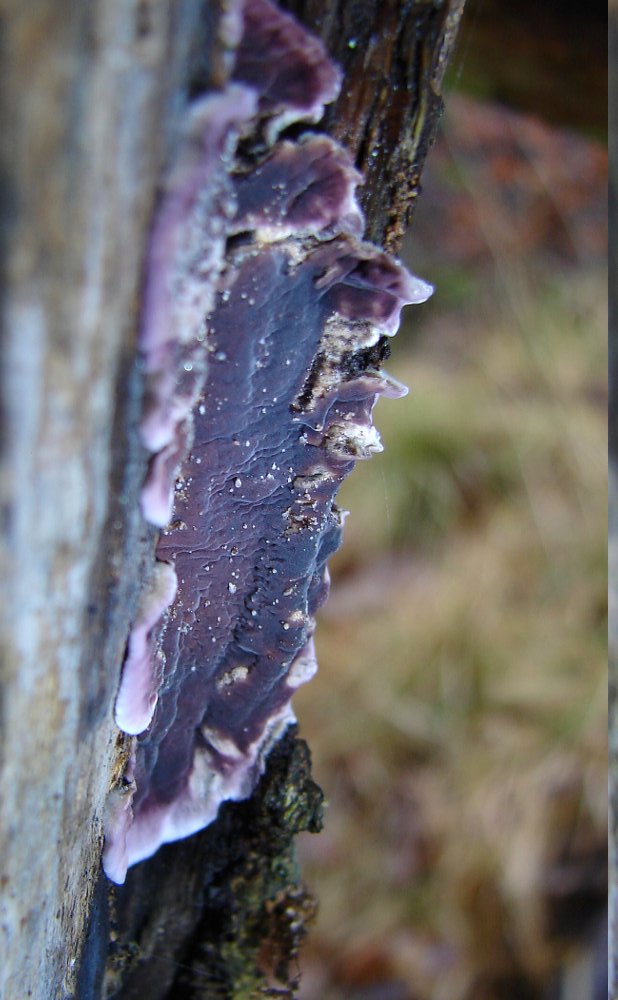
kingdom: Fungi
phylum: Basidiomycota
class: Agaricomycetes
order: Agaricales
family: Cyphellaceae
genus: Chondrostereum
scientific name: Chondrostereum purpureum
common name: purpurlædersvamp
